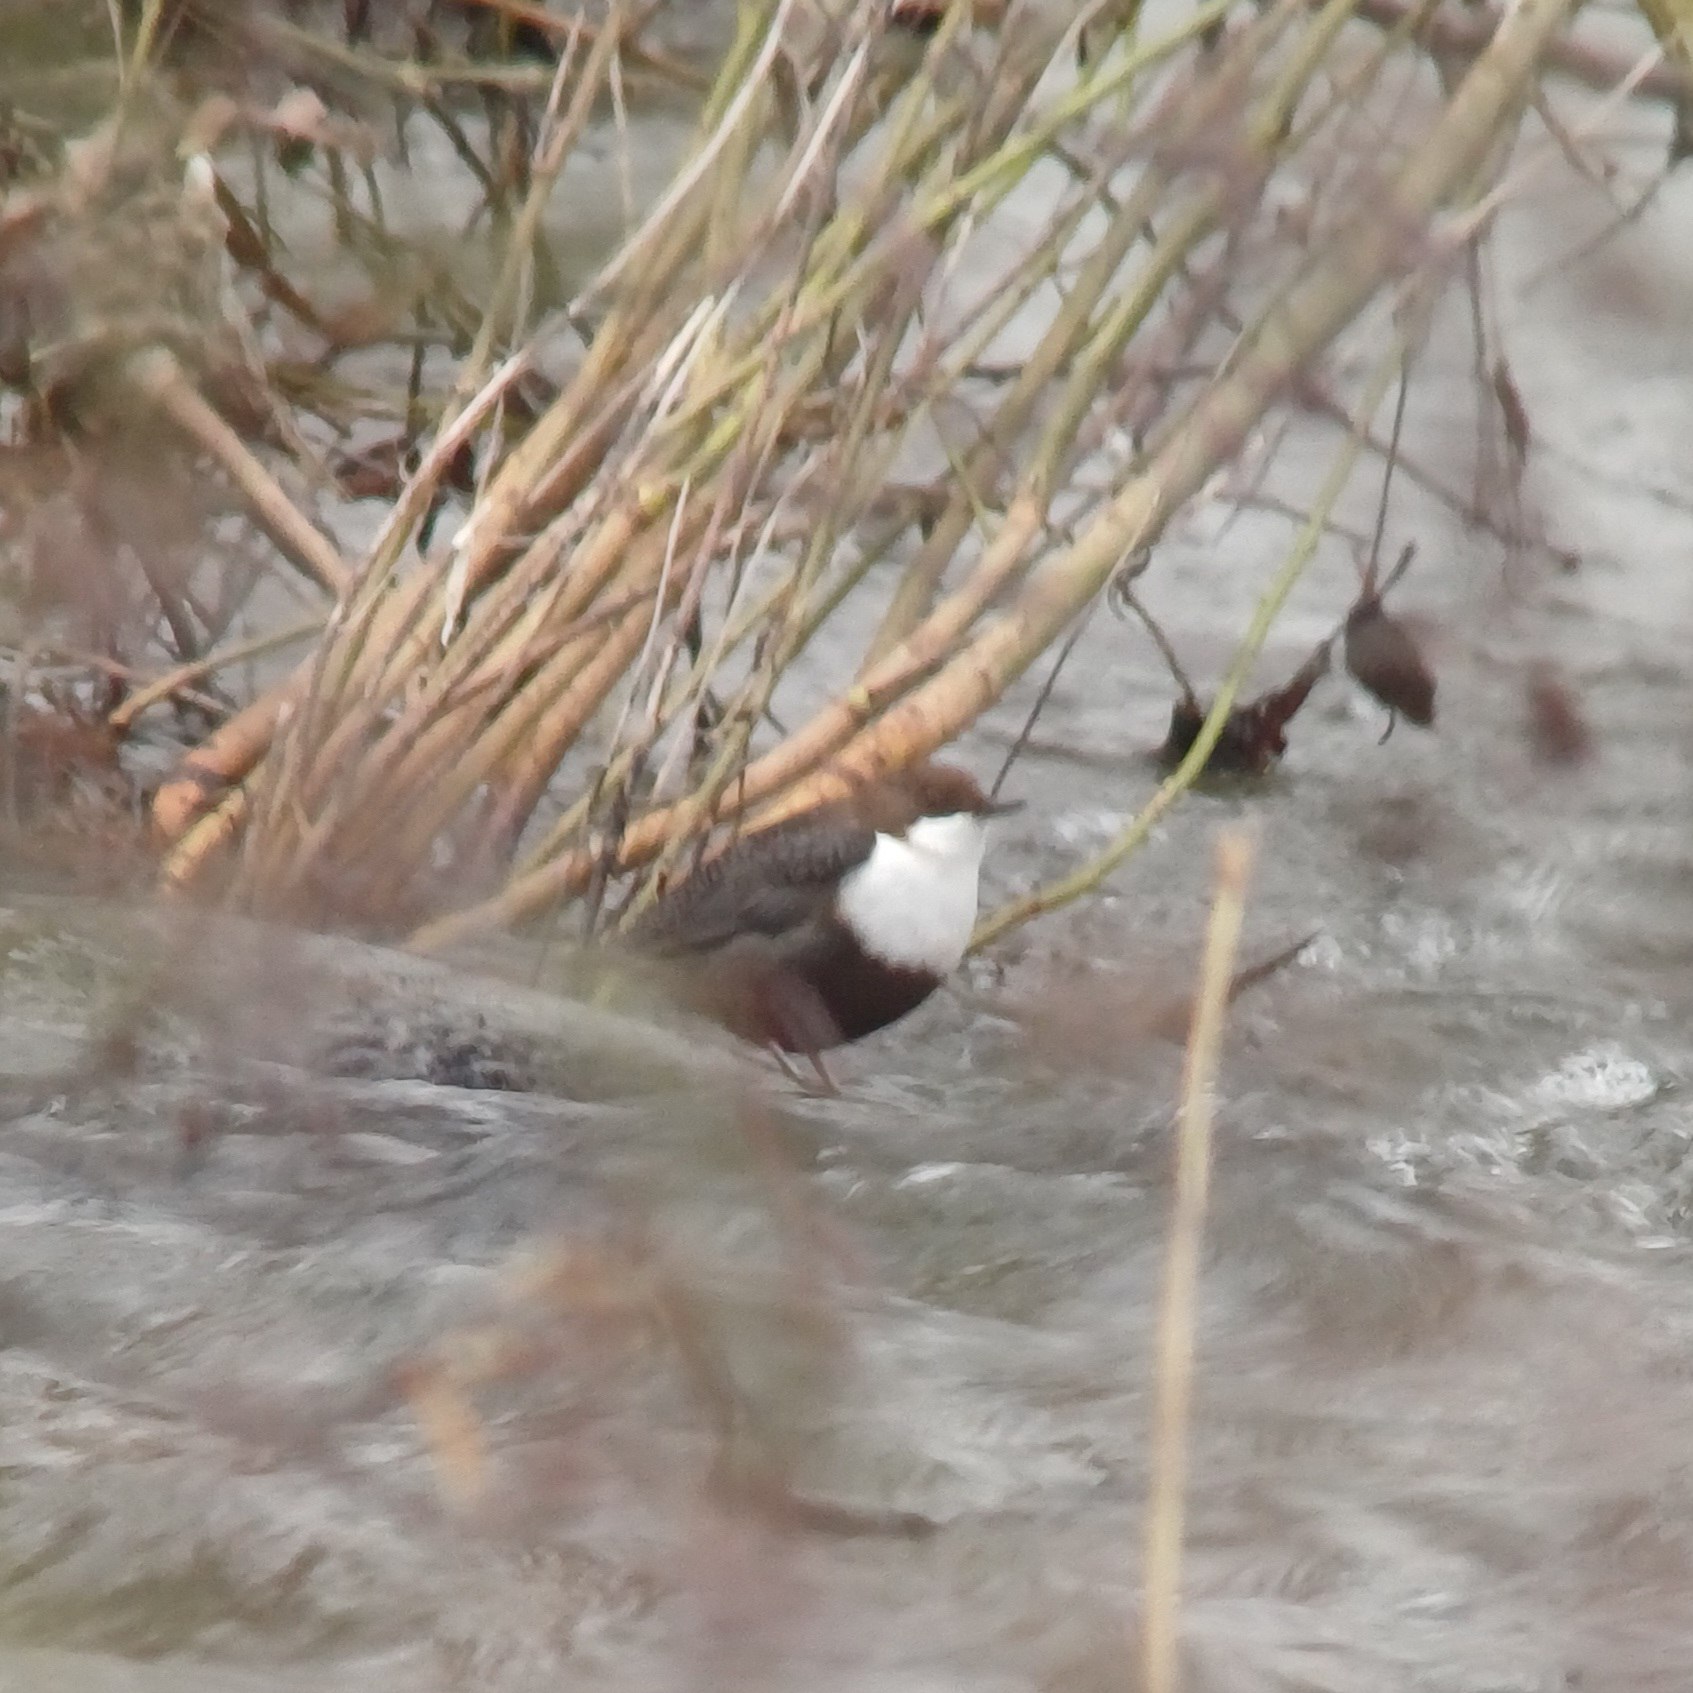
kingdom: Animalia
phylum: Chordata
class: Aves
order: Passeriformes
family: Cinclidae
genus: Cinclus
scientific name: Cinclus cinclus
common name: Vandstær
